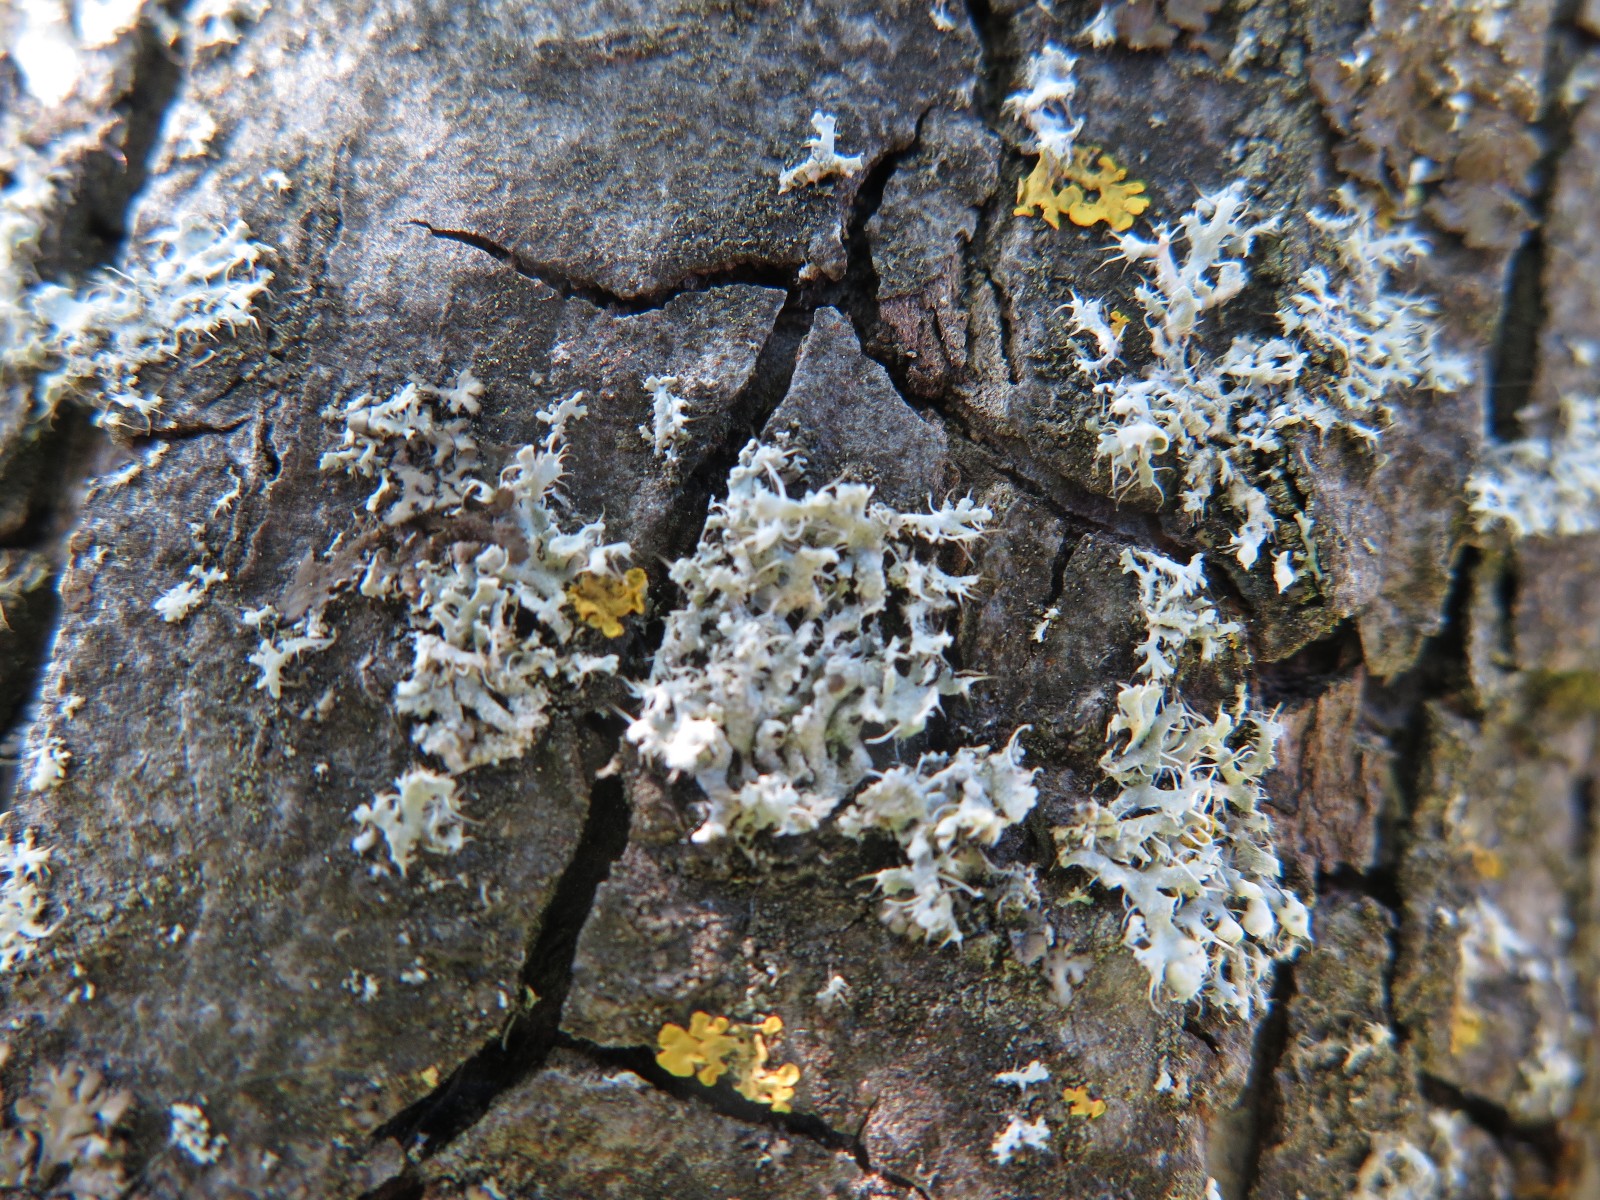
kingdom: Fungi
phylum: Ascomycota
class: Lecanoromycetes
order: Caliciales
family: Physciaceae
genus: Physcia
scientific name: Physcia tenella
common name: spæd rosetlav
